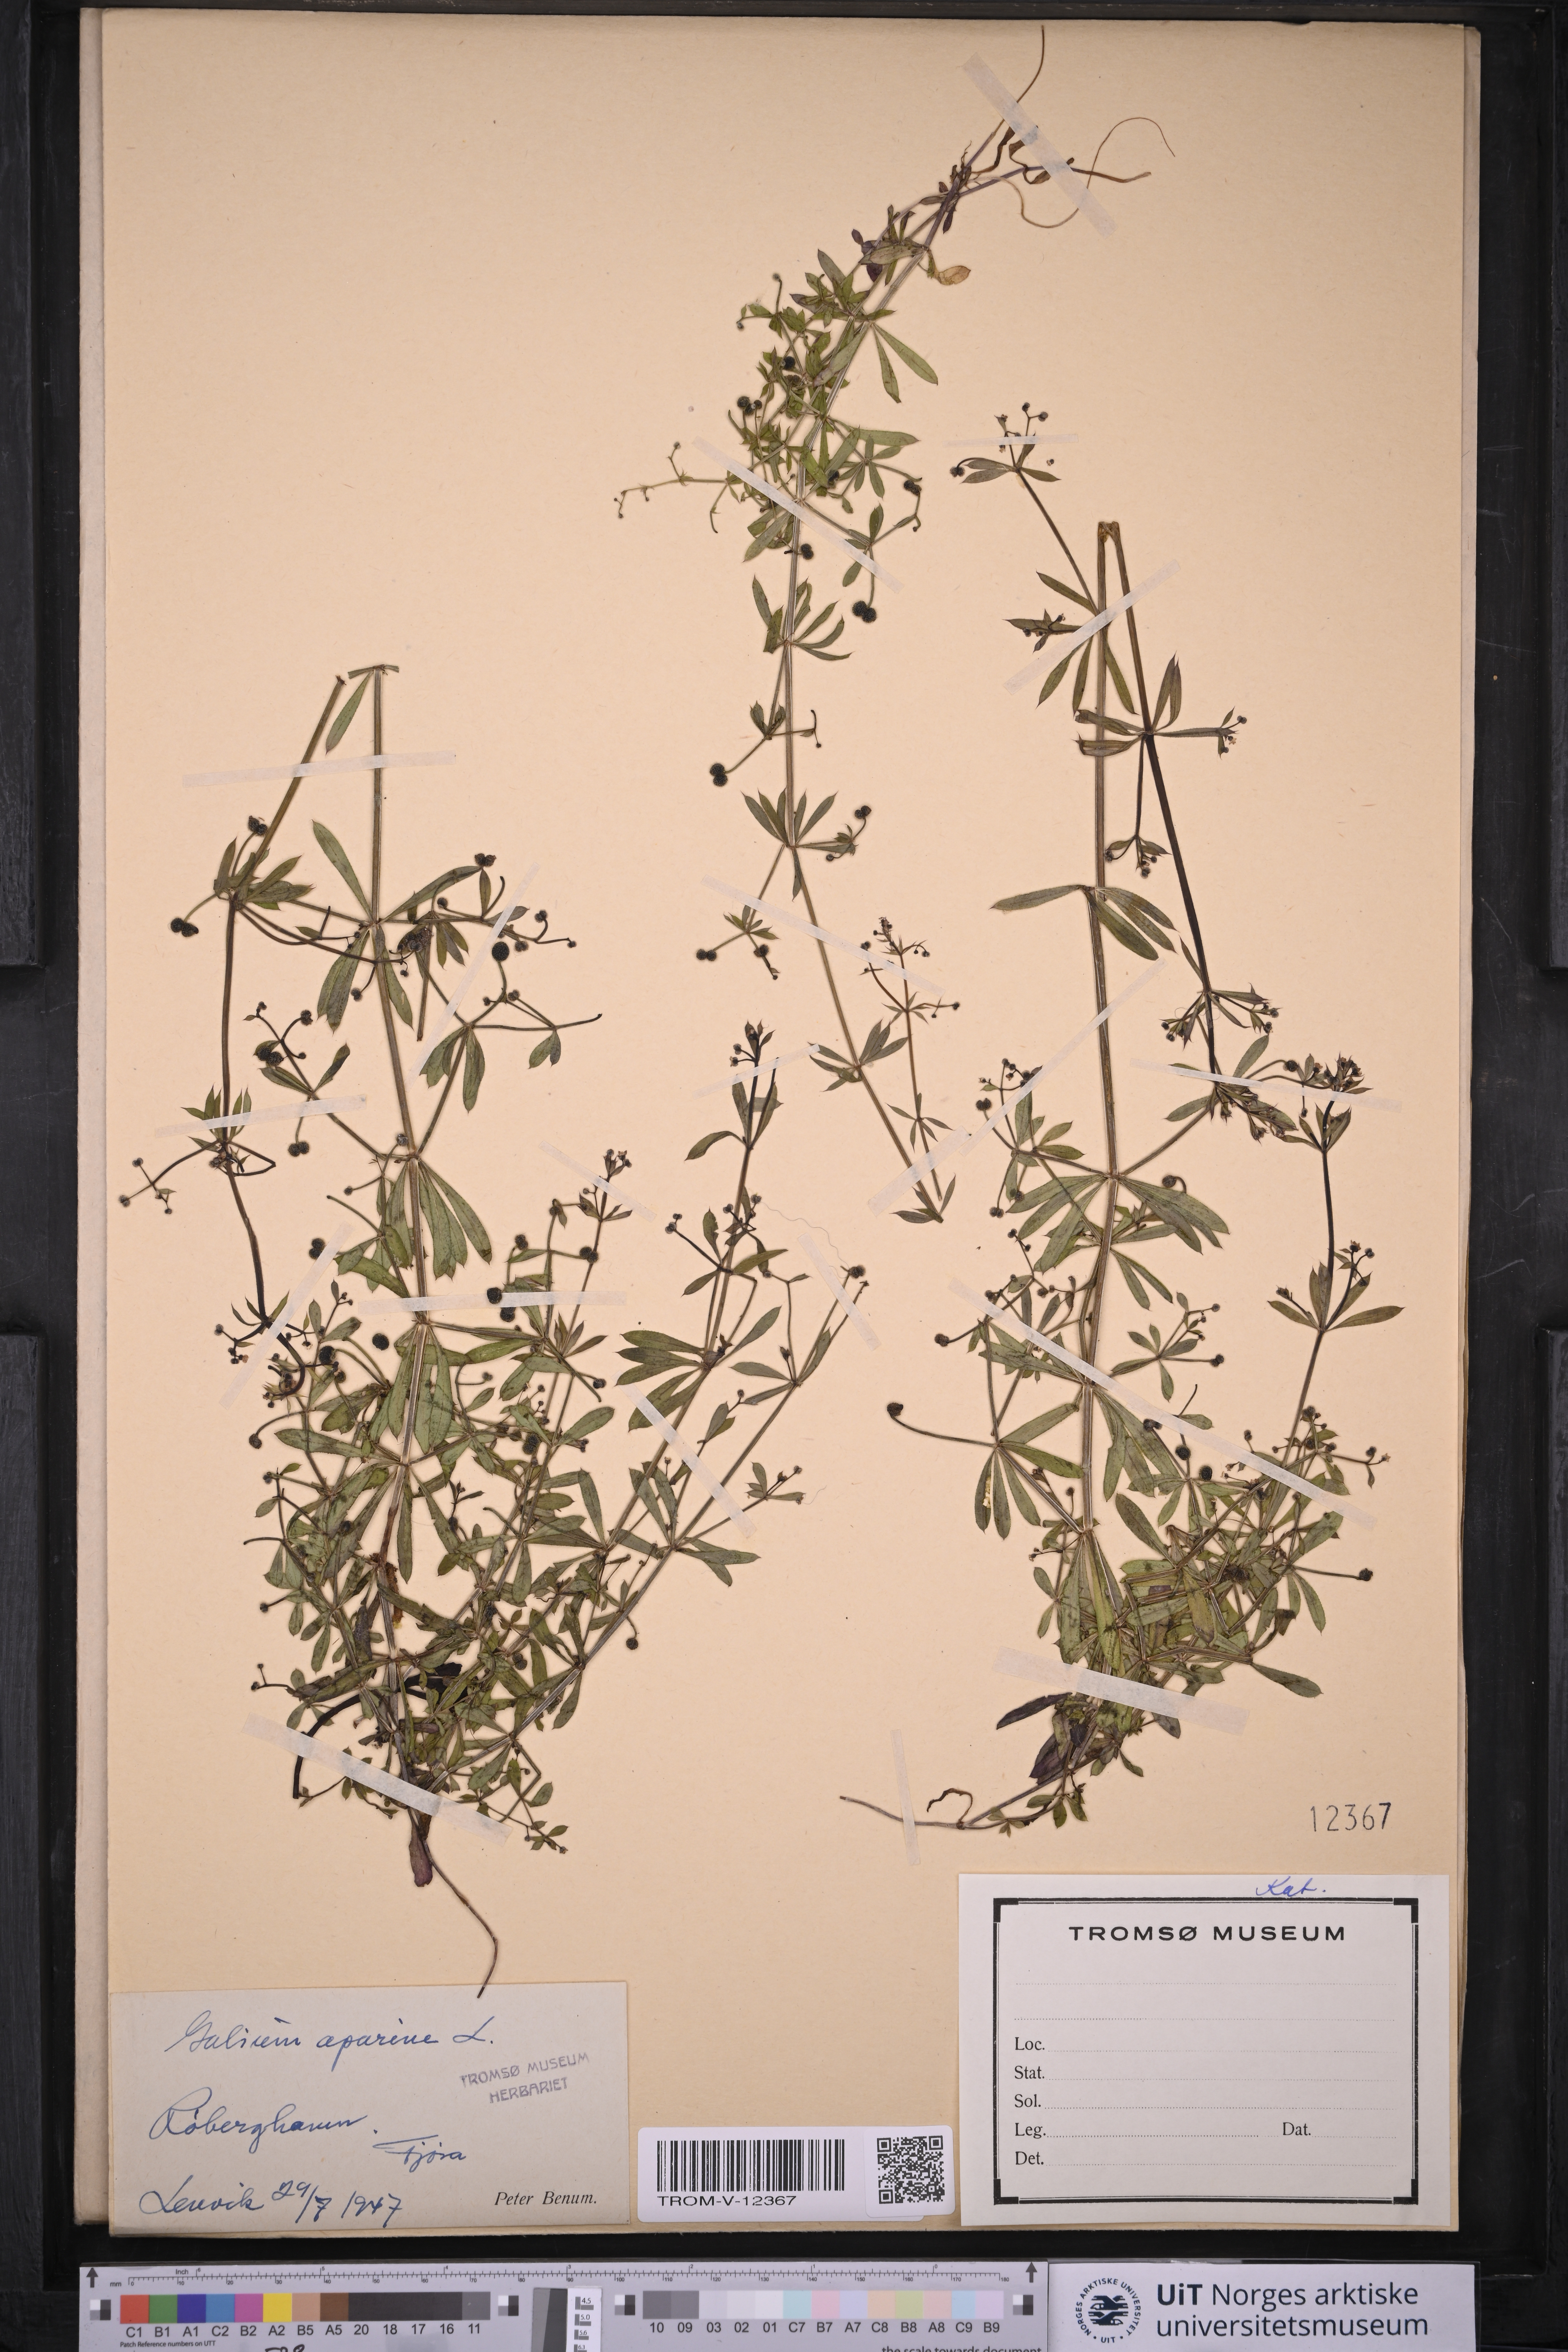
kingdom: Plantae
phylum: Tracheophyta
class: Magnoliopsida
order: Gentianales
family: Rubiaceae
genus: Galium
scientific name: Galium aparine
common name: Cleavers
